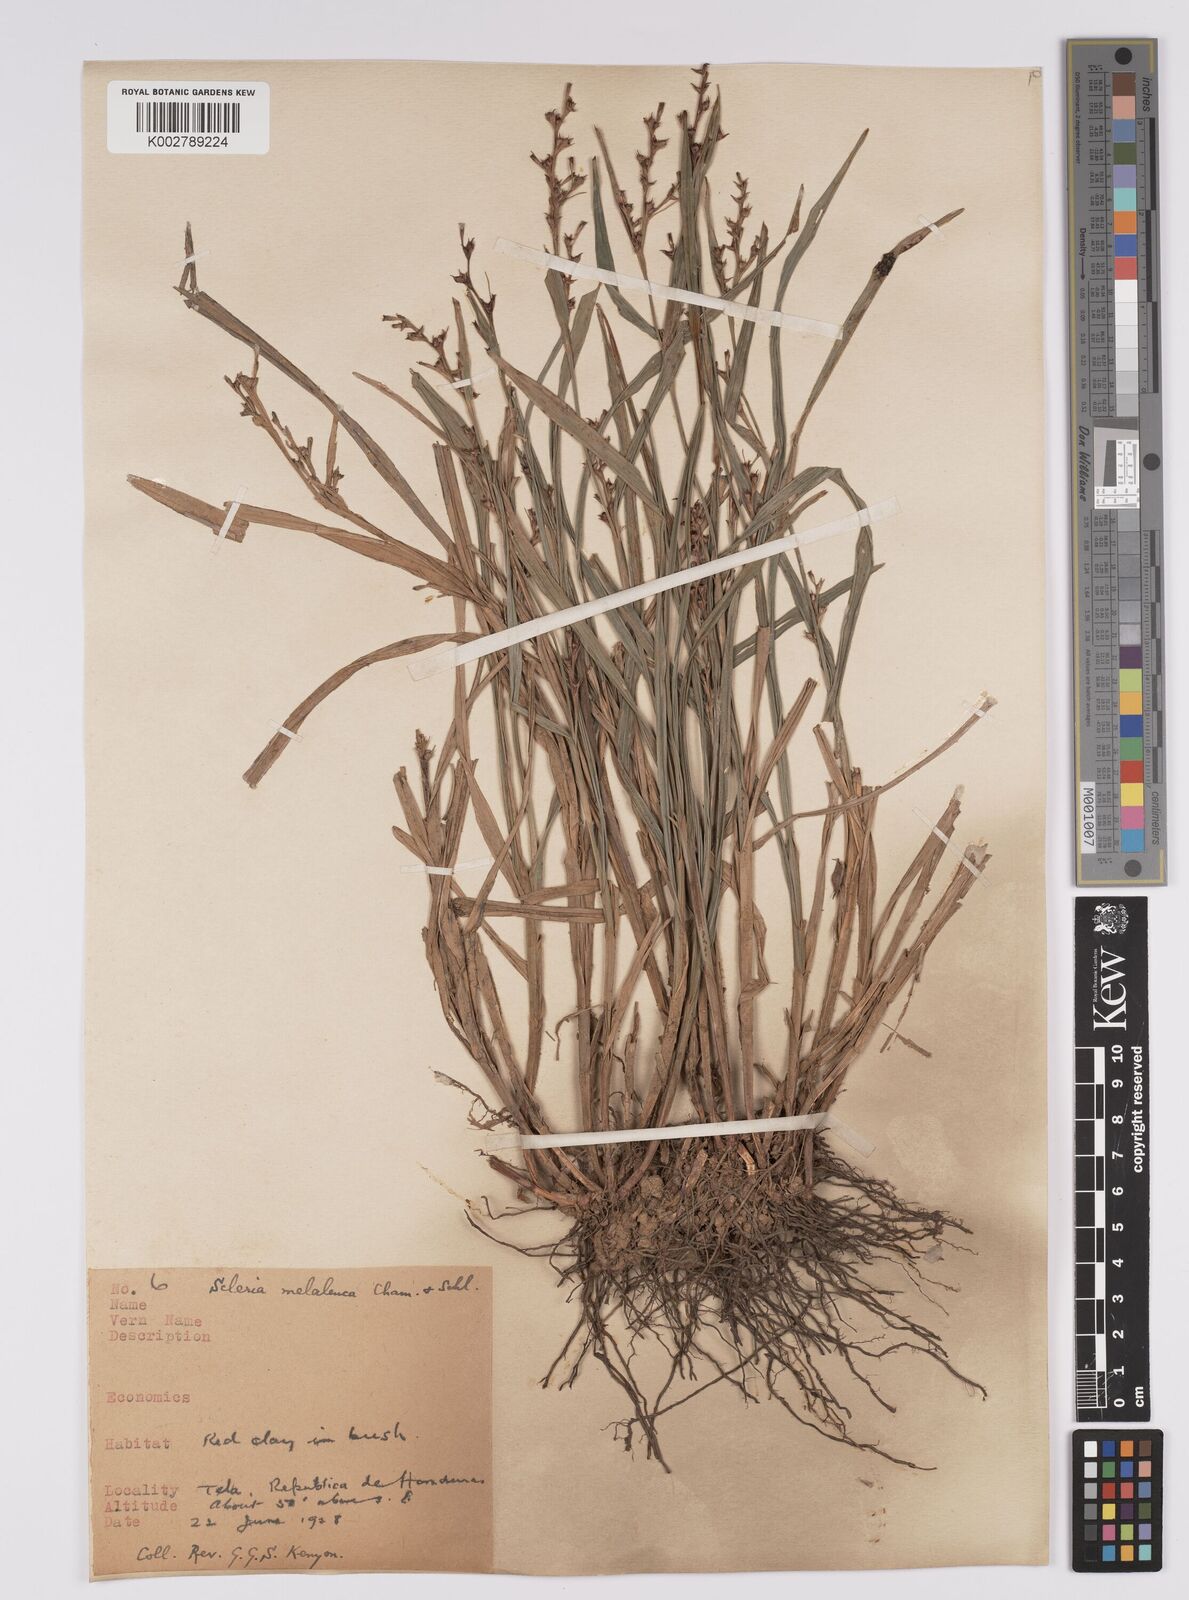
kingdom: Plantae
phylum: Tracheophyta
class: Liliopsida
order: Poales
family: Cyperaceae
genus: Scleria
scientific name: Scleria gaertneri
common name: Cortadera blanca
